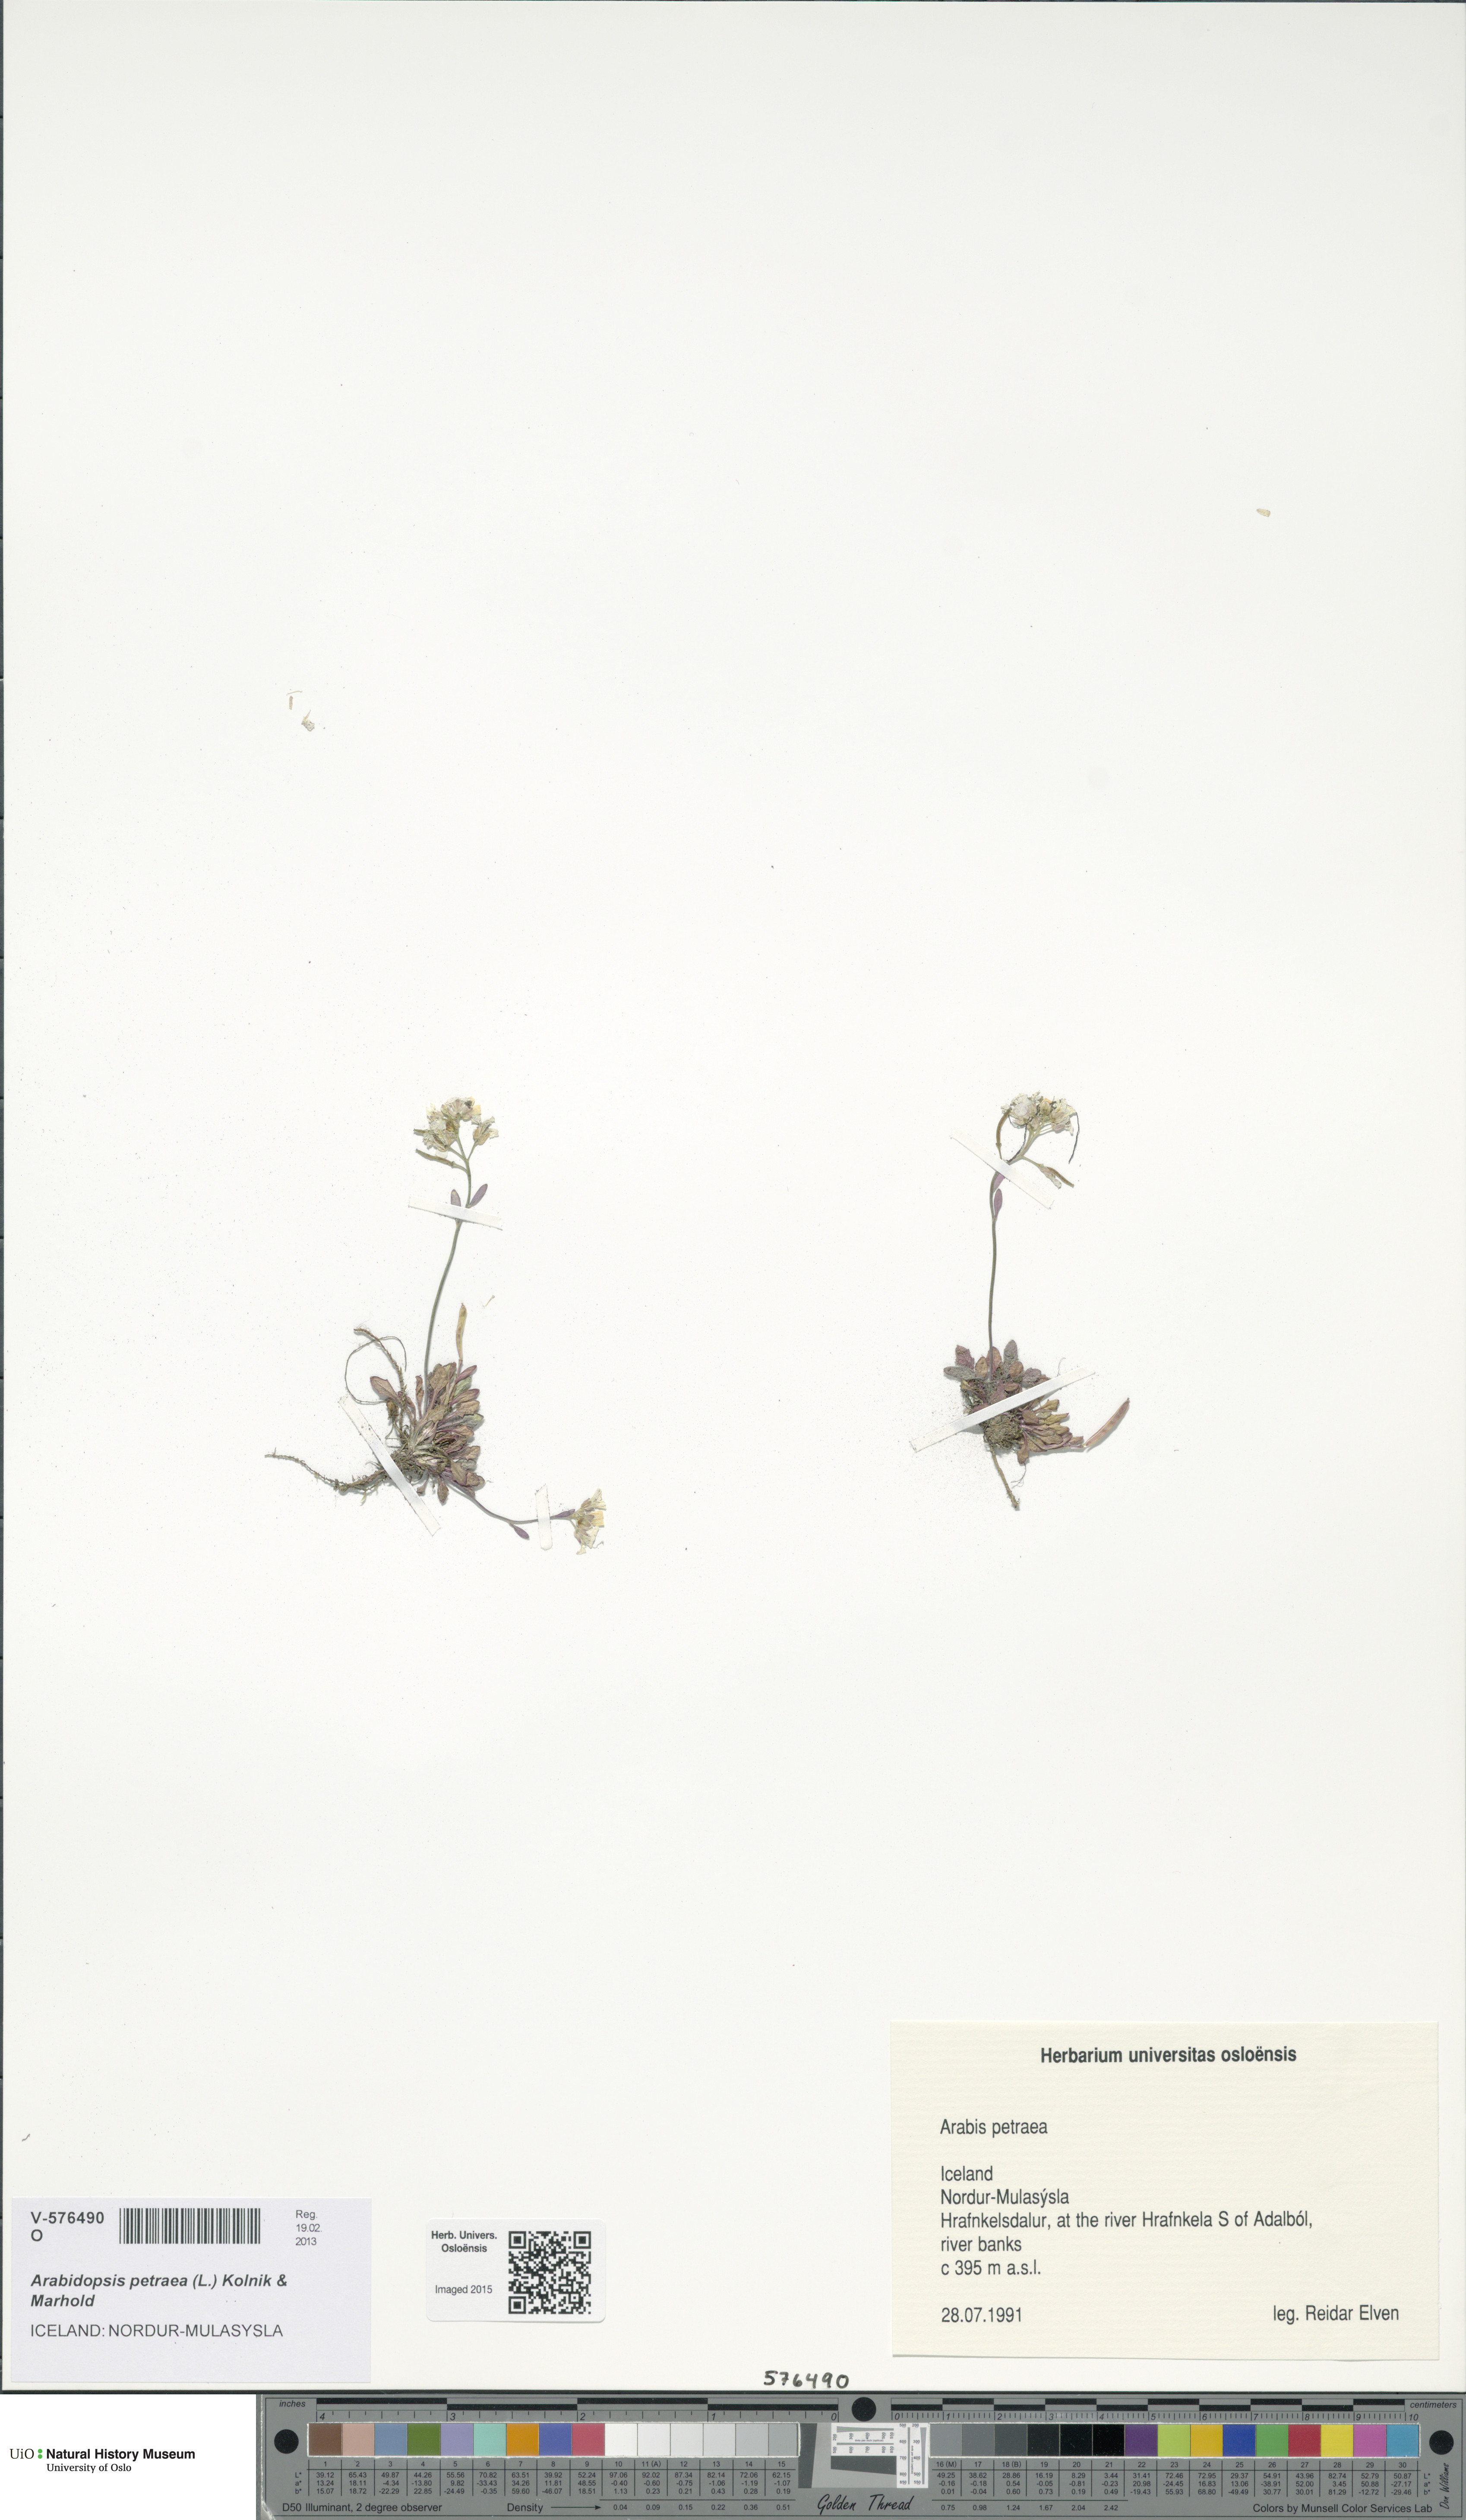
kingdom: Plantae
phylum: Tracheophyta
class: Magnoliopsida
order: Brassicales
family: Brassicaceae
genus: Arabidopsis
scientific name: Arabidopsis petraea
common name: Northern rock-cress
